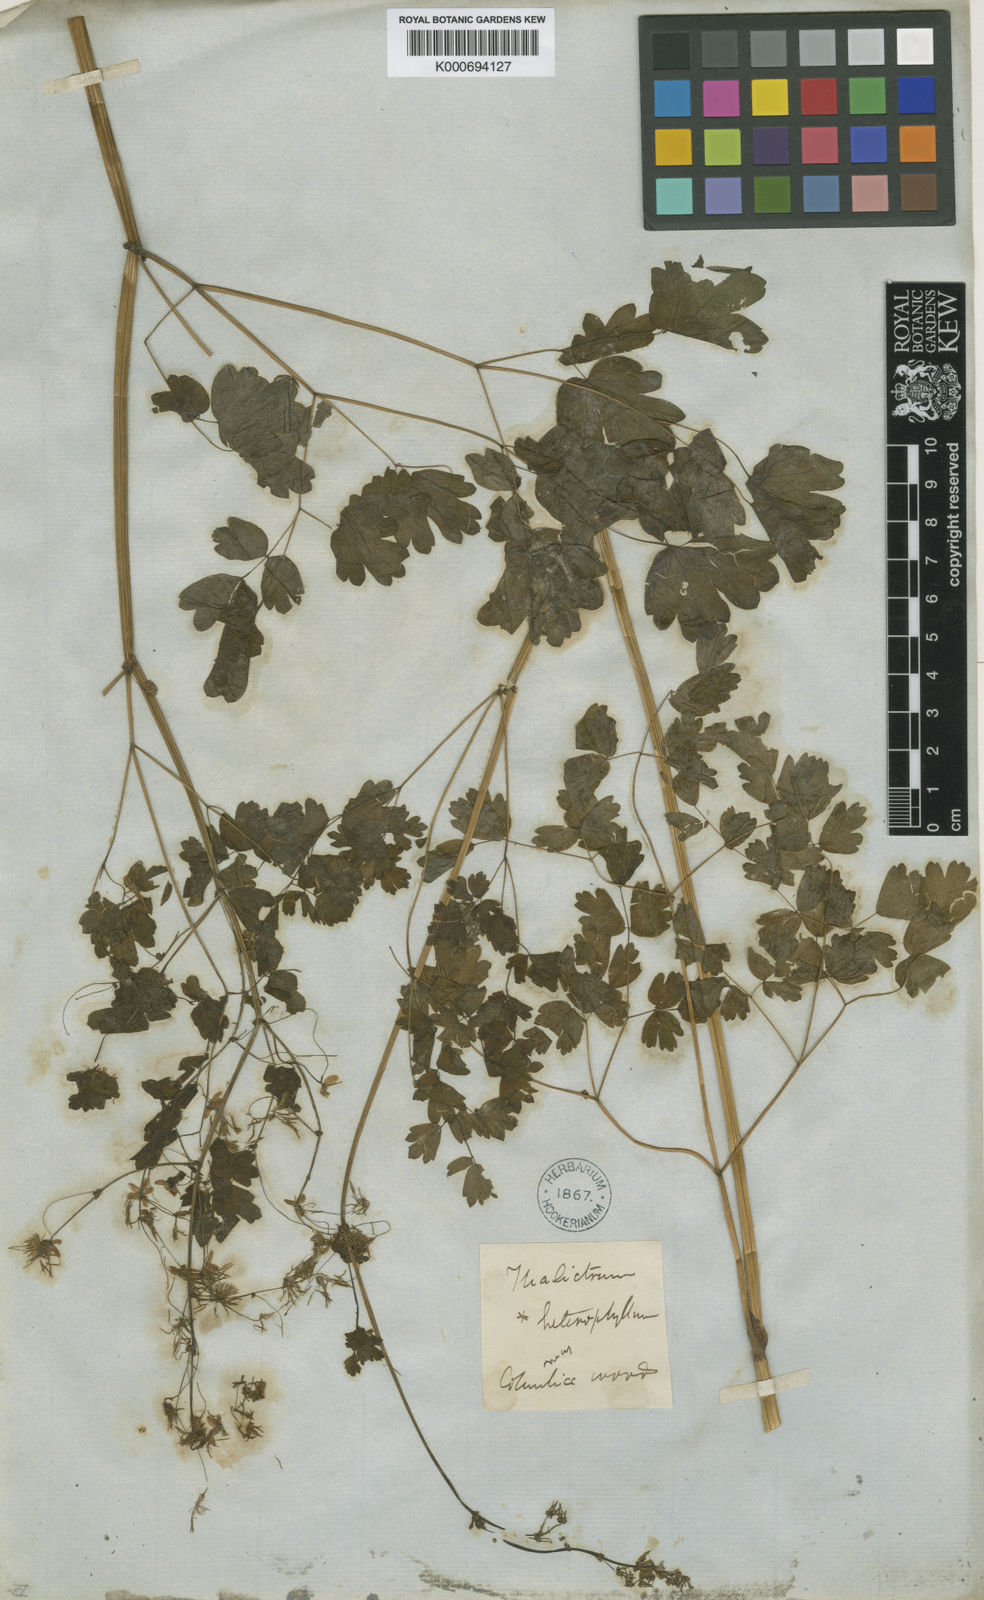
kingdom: Plantae
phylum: Tracheophyta
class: Magnoliopsida
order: Ranunculales
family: Ranunculaceae
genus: Thalictrum
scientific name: Thalictrum dioicum
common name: Early meadow-rue
